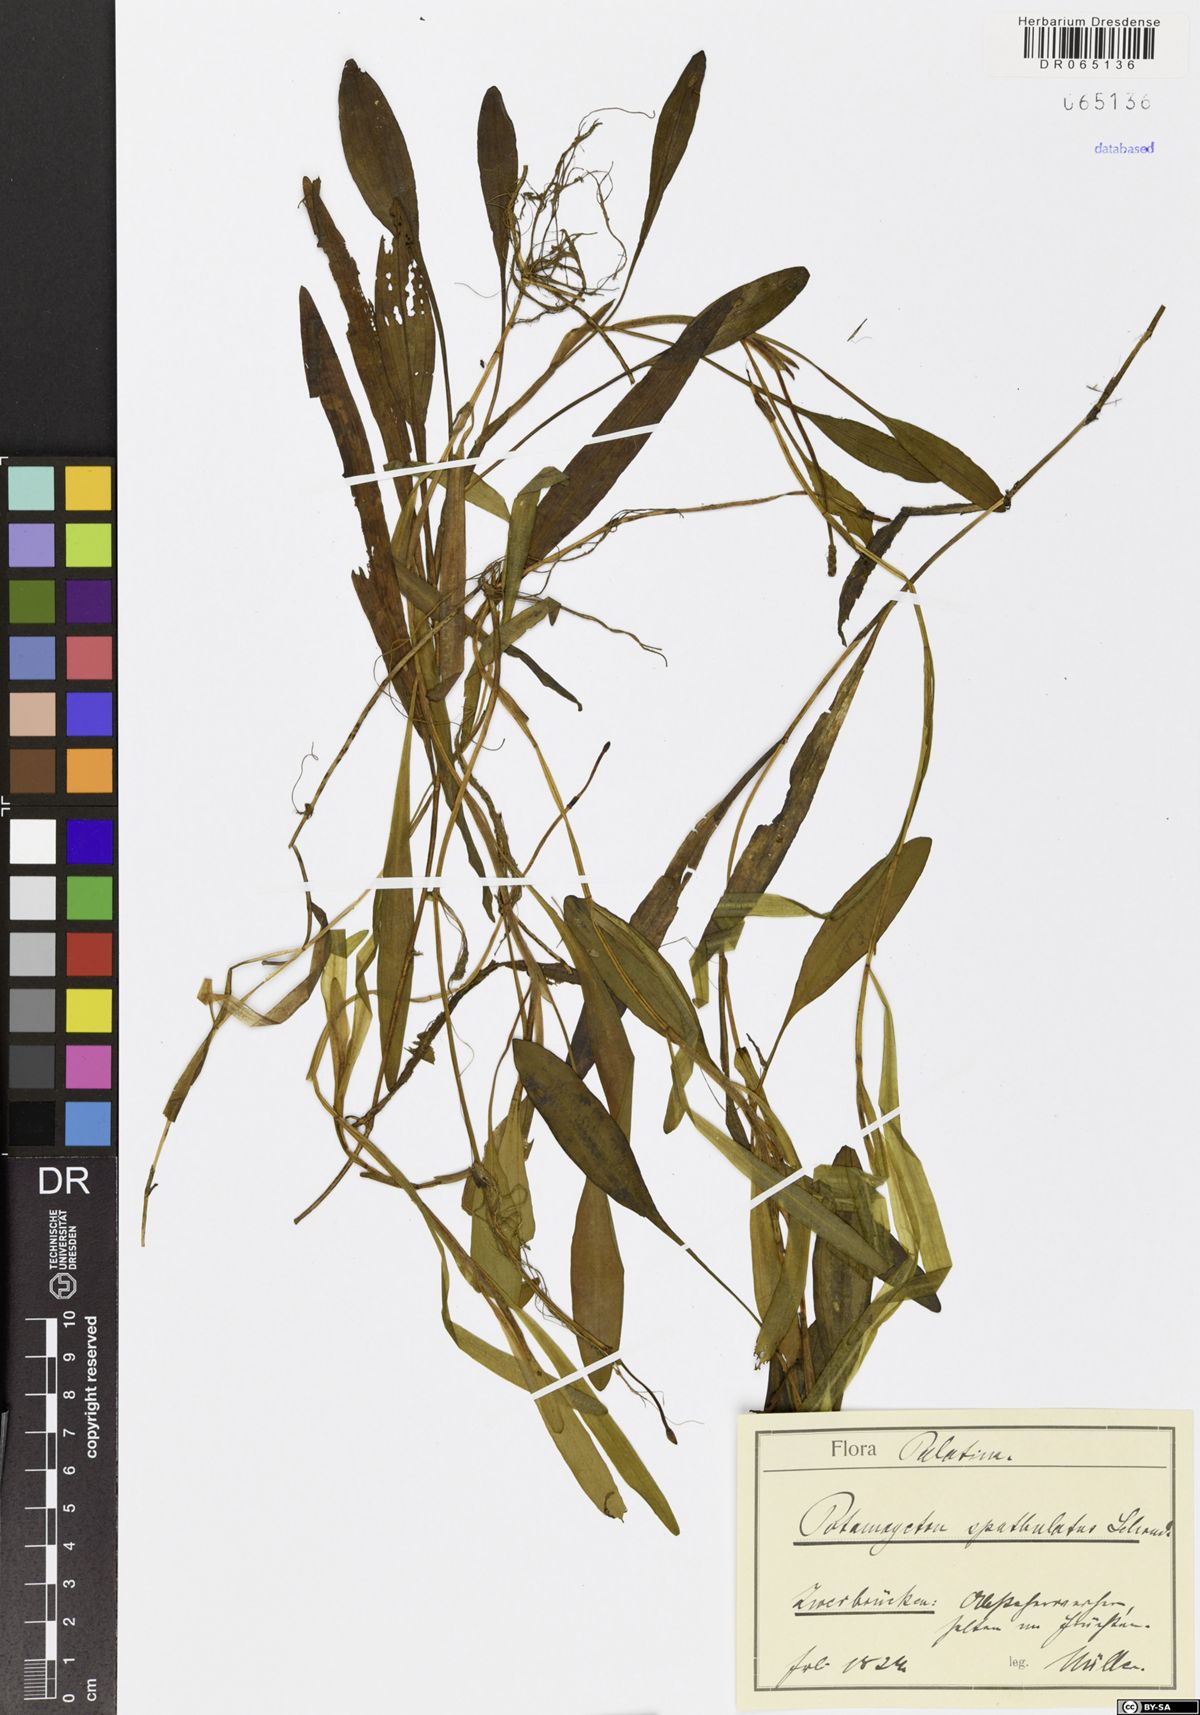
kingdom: Plantae
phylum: Tracheophyta
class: Liliopsida
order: Alismatales
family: Potamogetonaceae
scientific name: Potamogetonaceae
